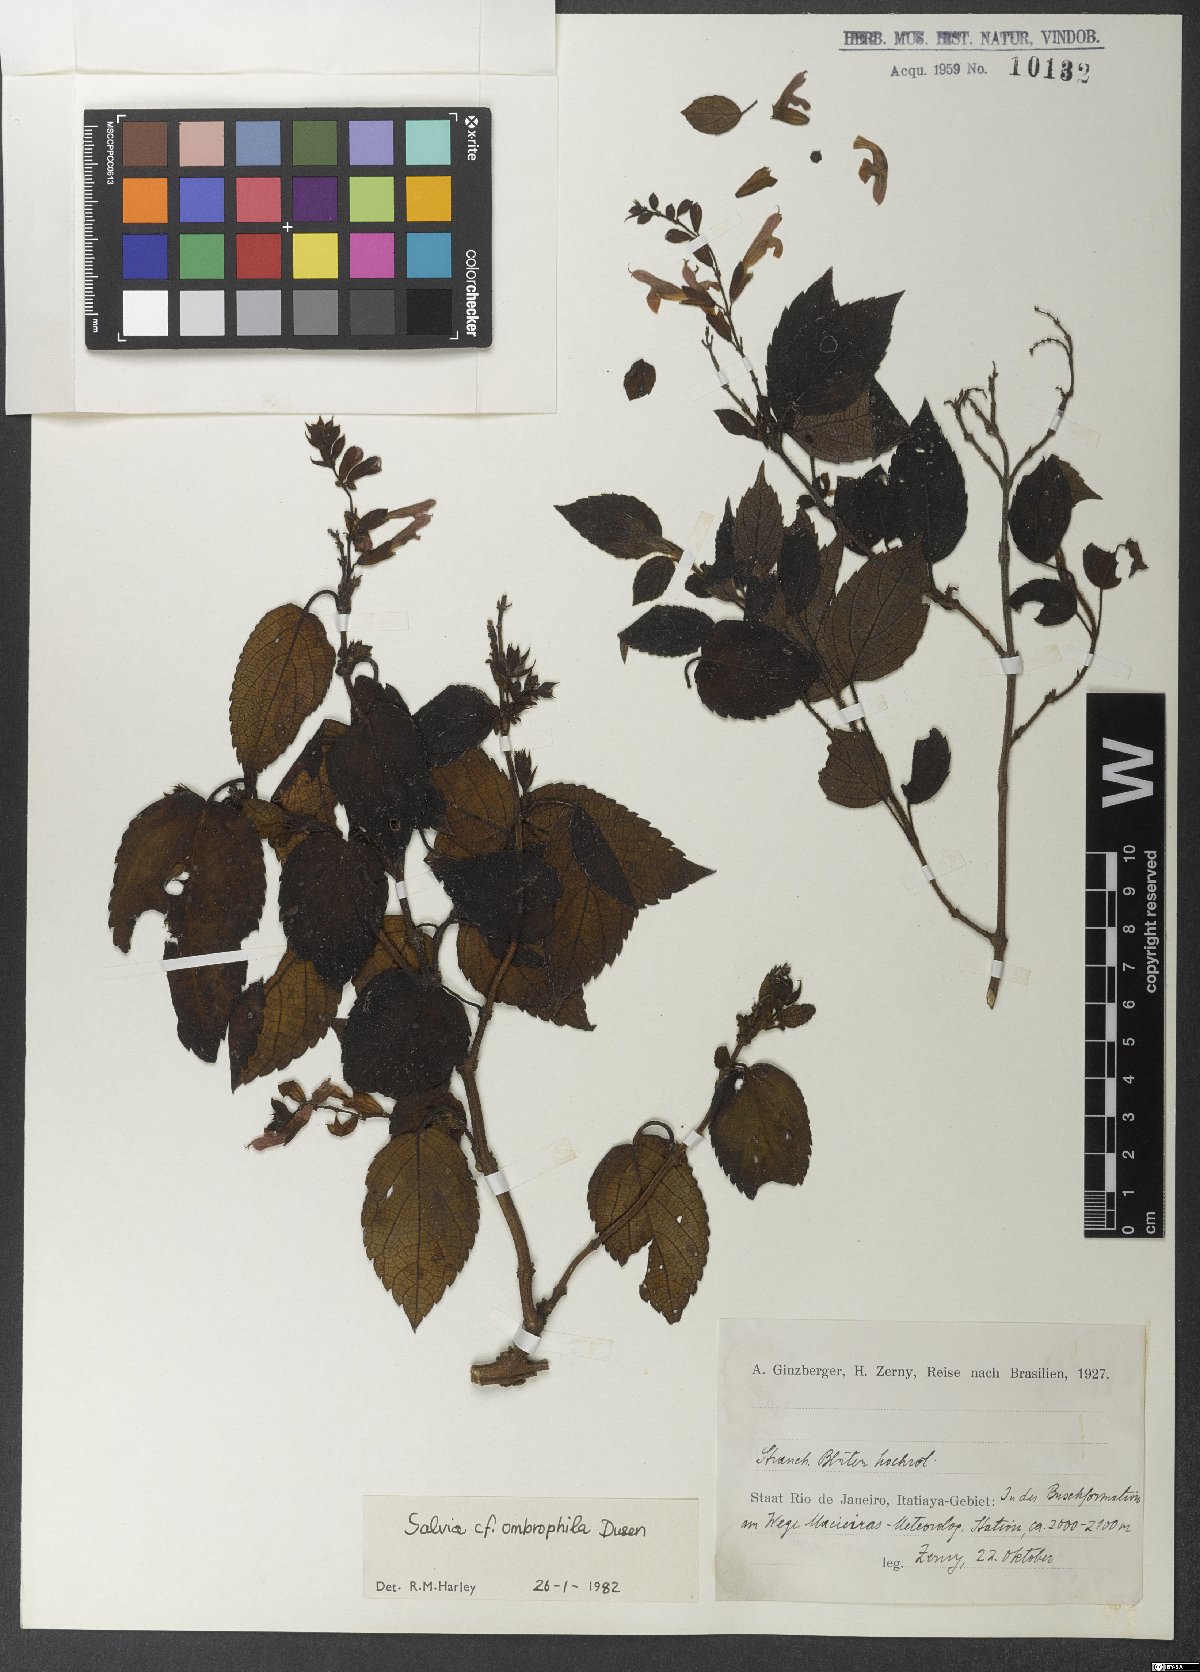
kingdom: Plantae
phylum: Tracheophyta
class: Magnoliopsida
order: Lamiales
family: Lamiaceae
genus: Salvia
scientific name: Salvia ombrophila
